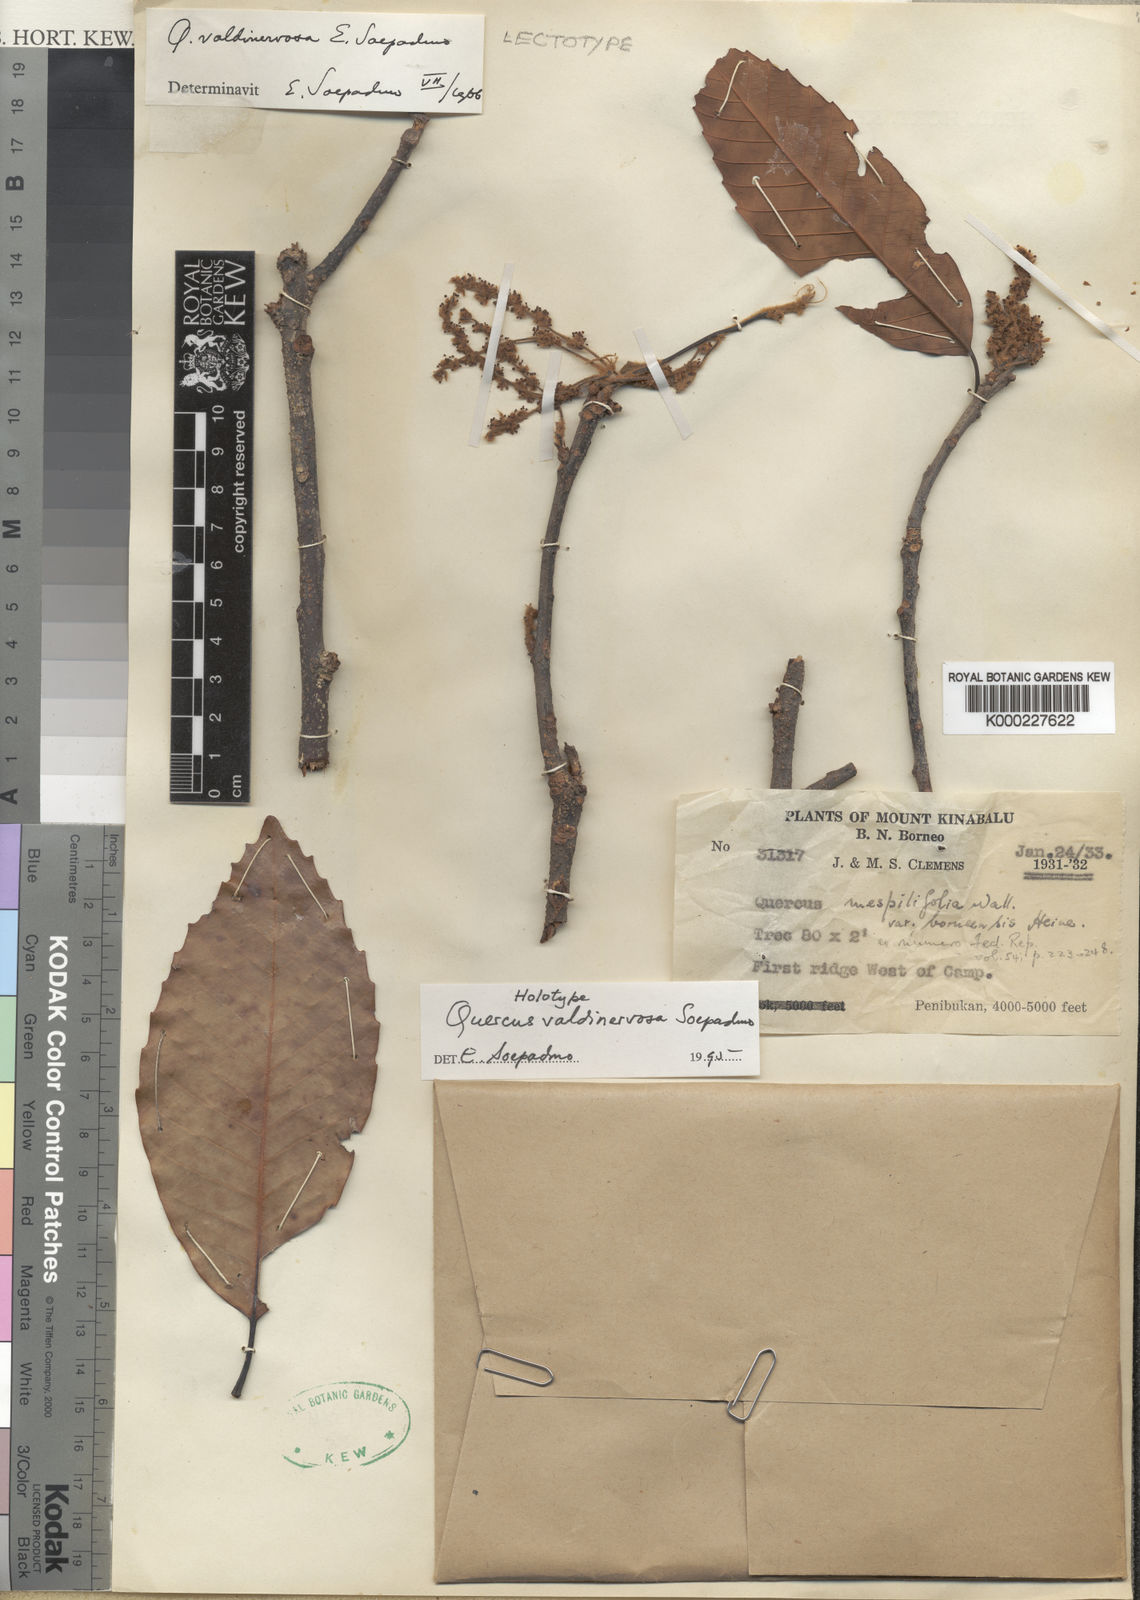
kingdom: Plantae
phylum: Tracheophyta
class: Magnoliopsida
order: Fagales
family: Fagaceae
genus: Quercus
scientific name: Quercus valdinervosa
